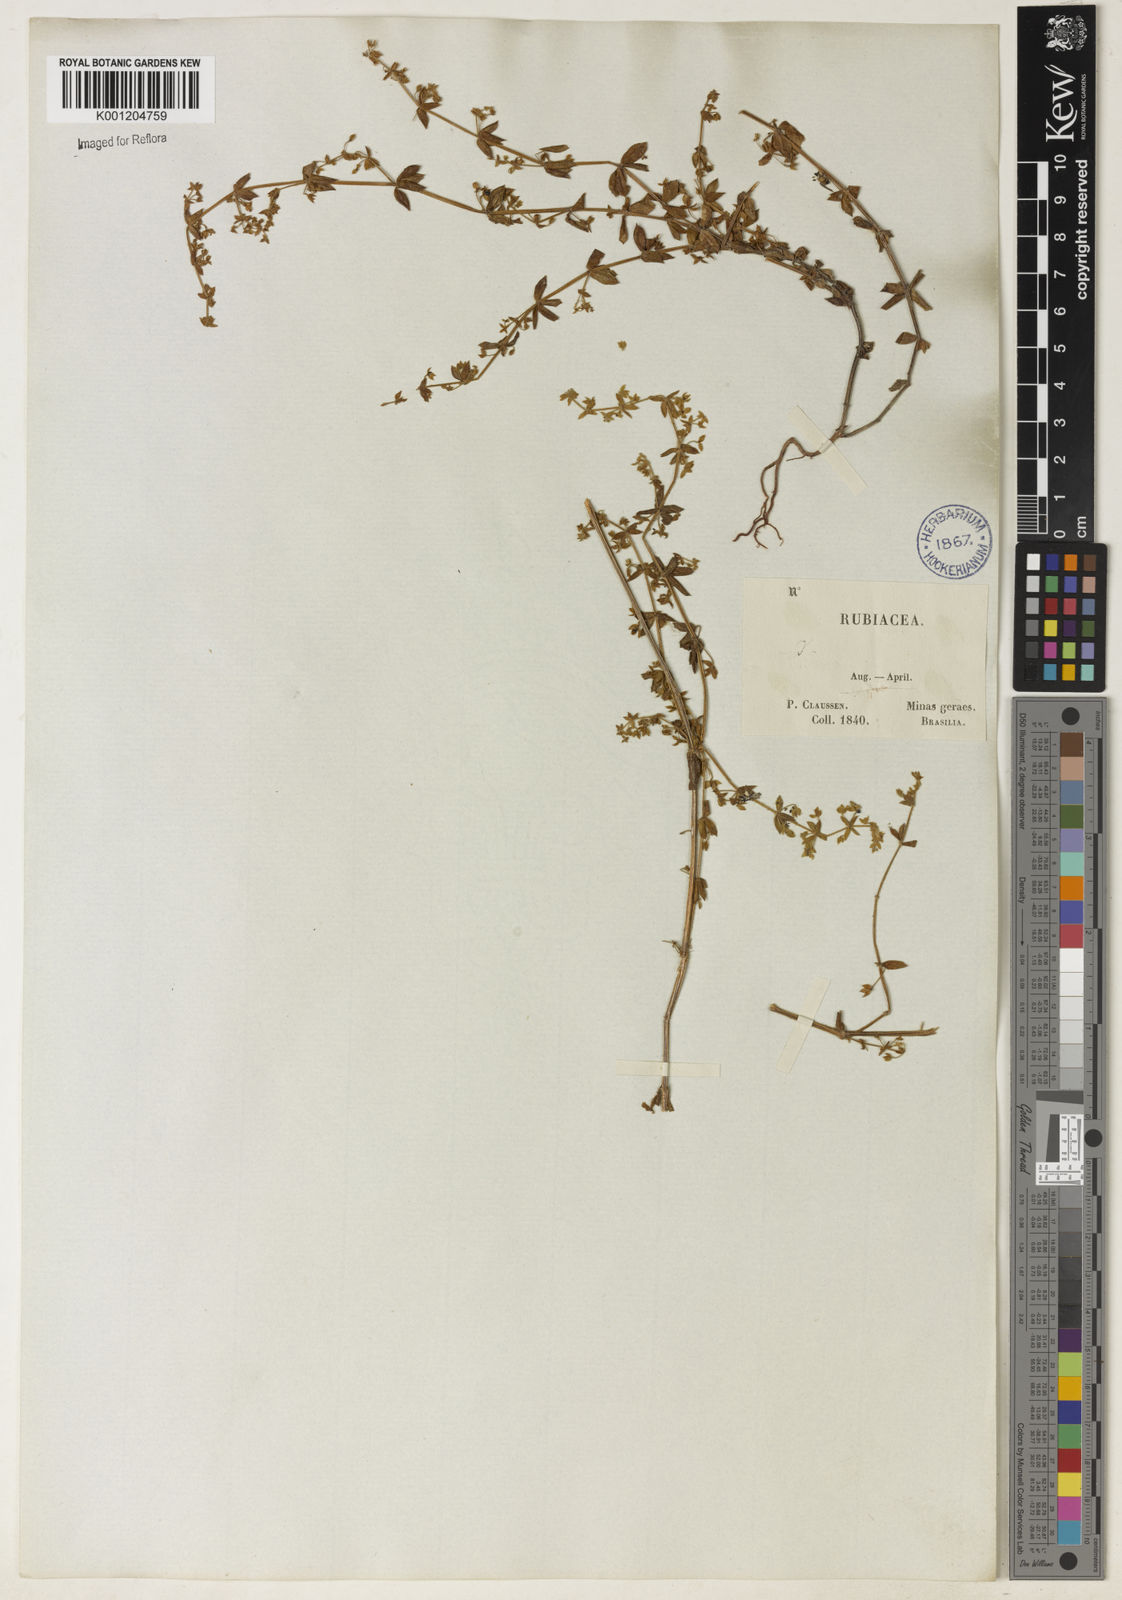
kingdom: Plantae
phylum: Tracheophyta
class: Magnoliopsida
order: Gentianales
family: Rubiaceae
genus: Galium
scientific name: Galium noxium
